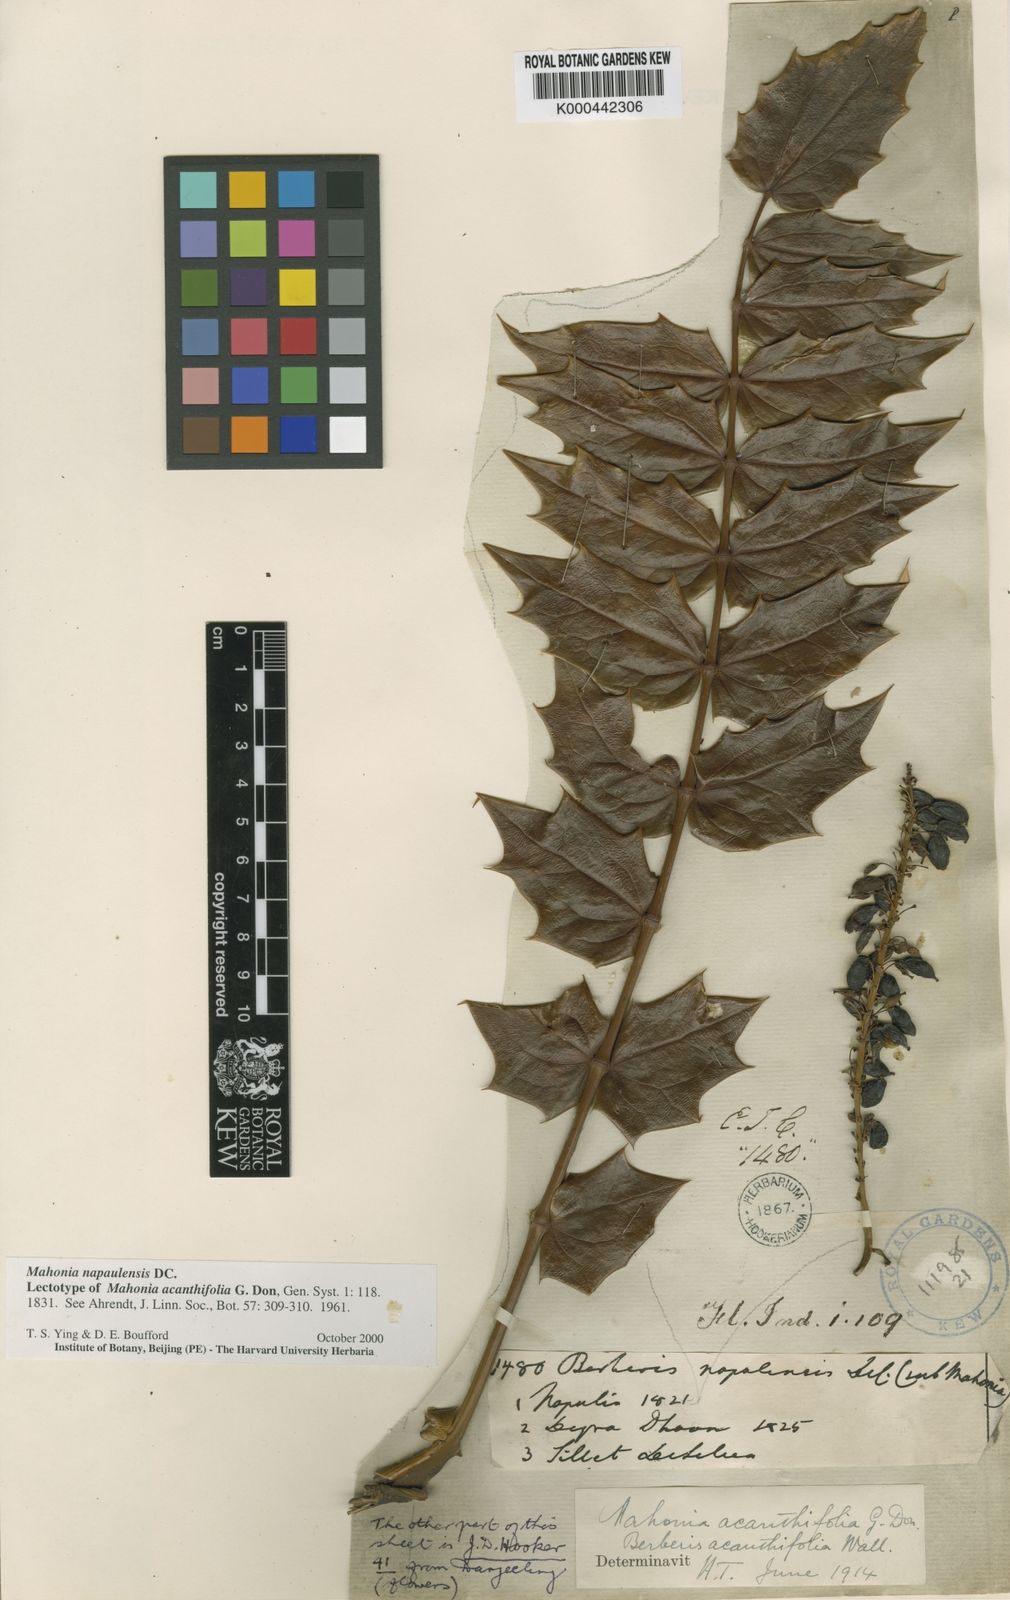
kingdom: Plantae
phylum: Tracheophyta
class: Magnoliopsida
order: Ranunculales
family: Berberidaceae
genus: Mahonia
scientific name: Mahonia napaulensis
